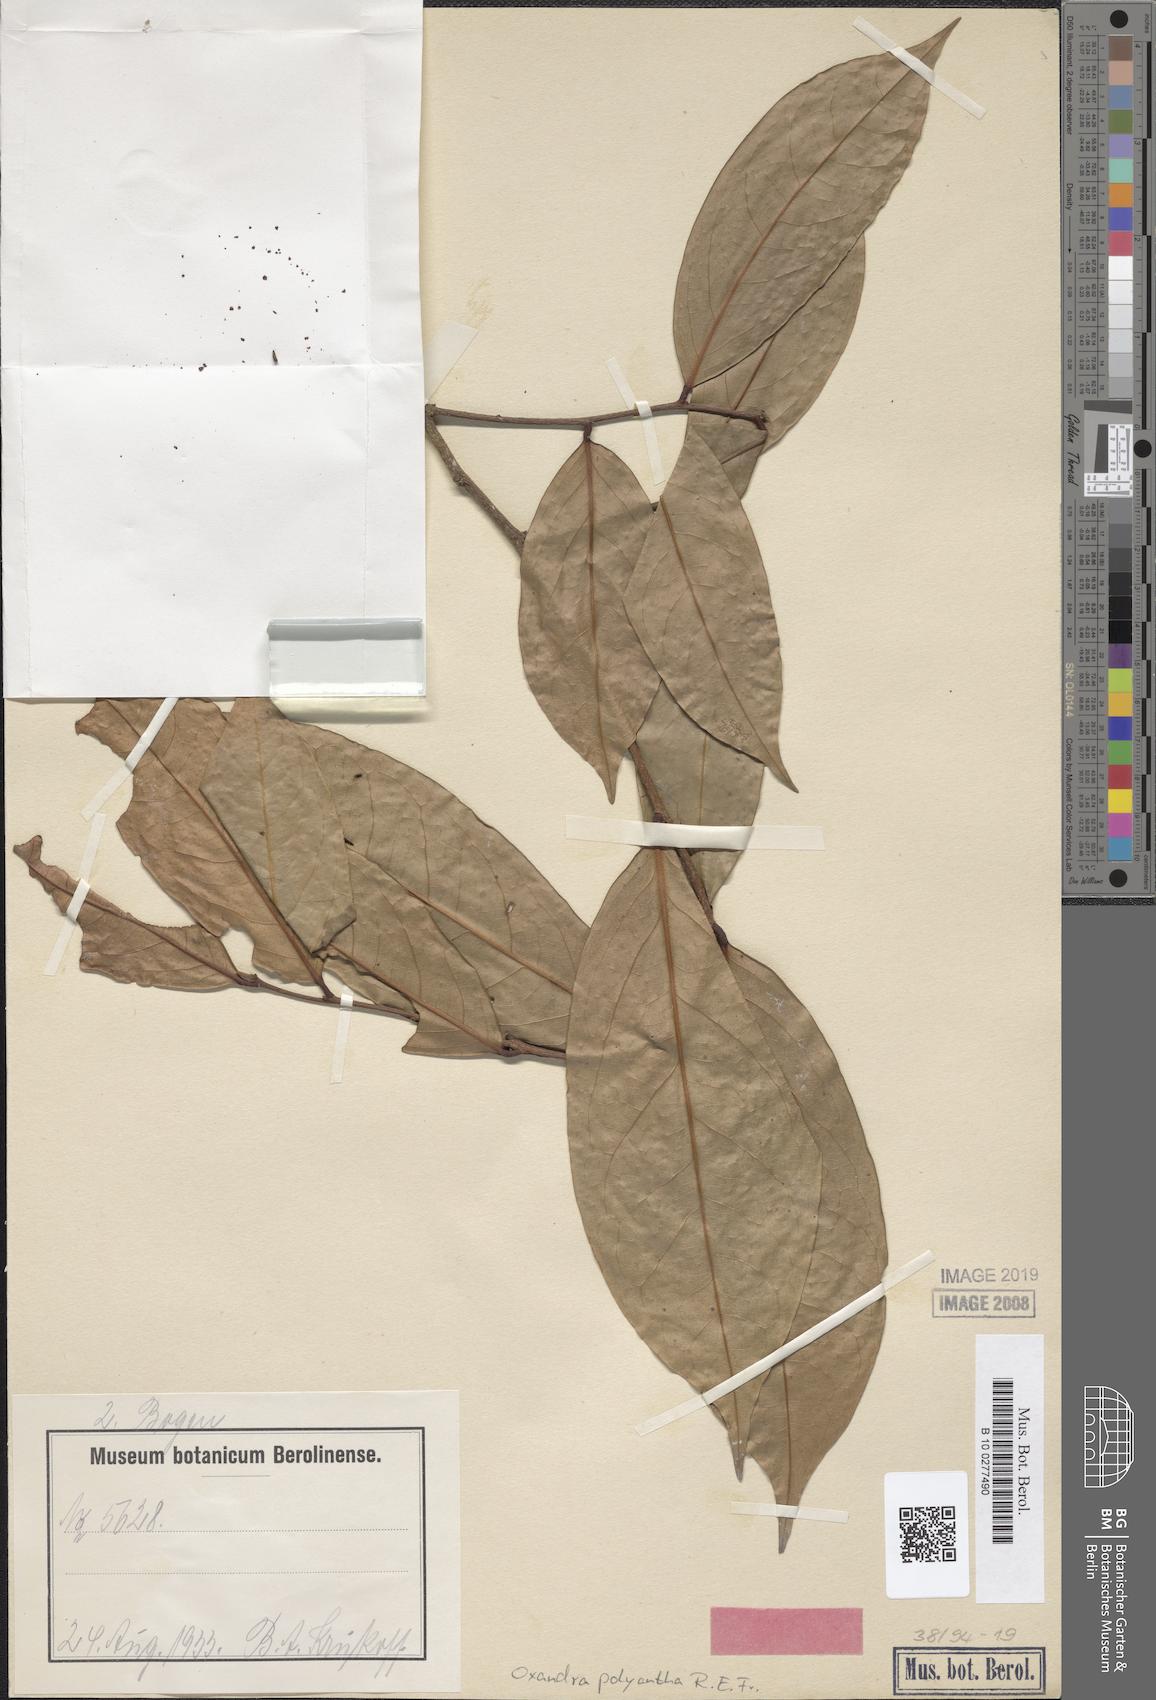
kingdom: Plantae
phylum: Tracheophyta
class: Magnoliopsida
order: Magnoliales
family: Annonaceae
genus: Oxandra
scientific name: Oxandra polyantha
